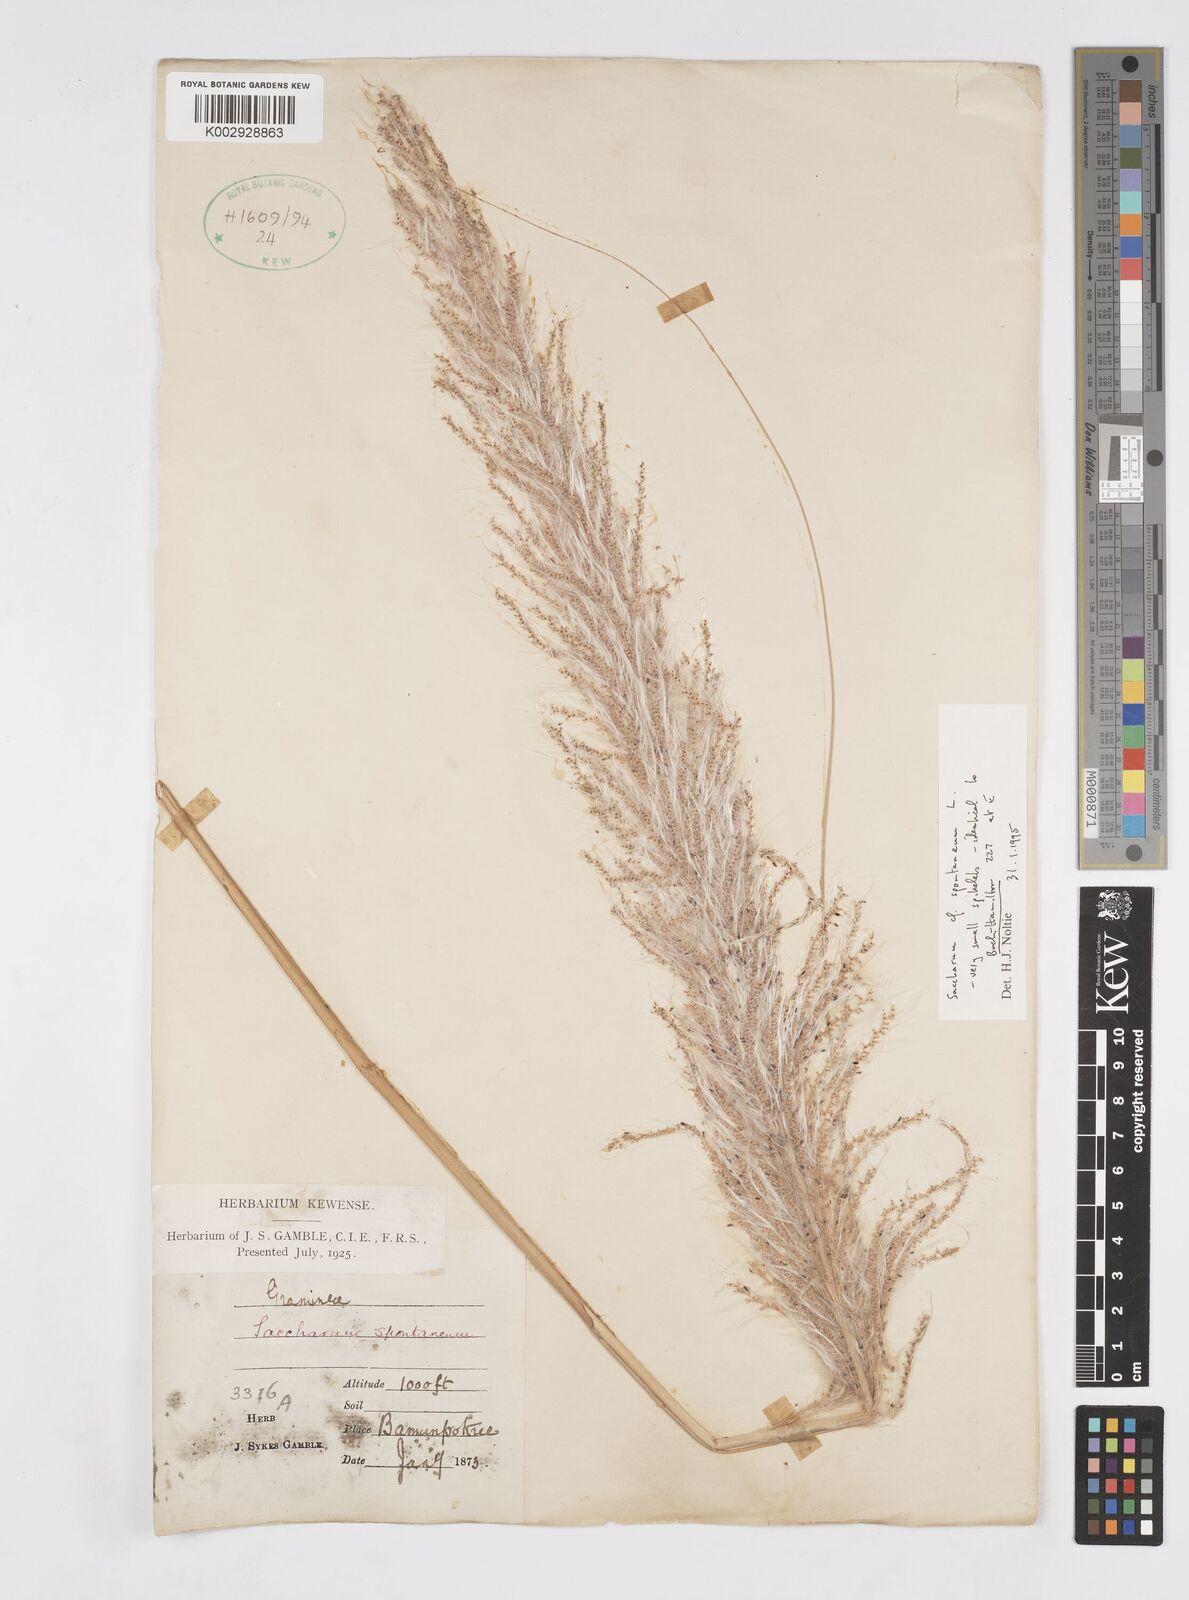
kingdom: Plantae
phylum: Tracheophyta
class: Liliopsida
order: Poales
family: Poaceae
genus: Saccharum
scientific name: Saccharum spontaneum
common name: Wild sugarcane
